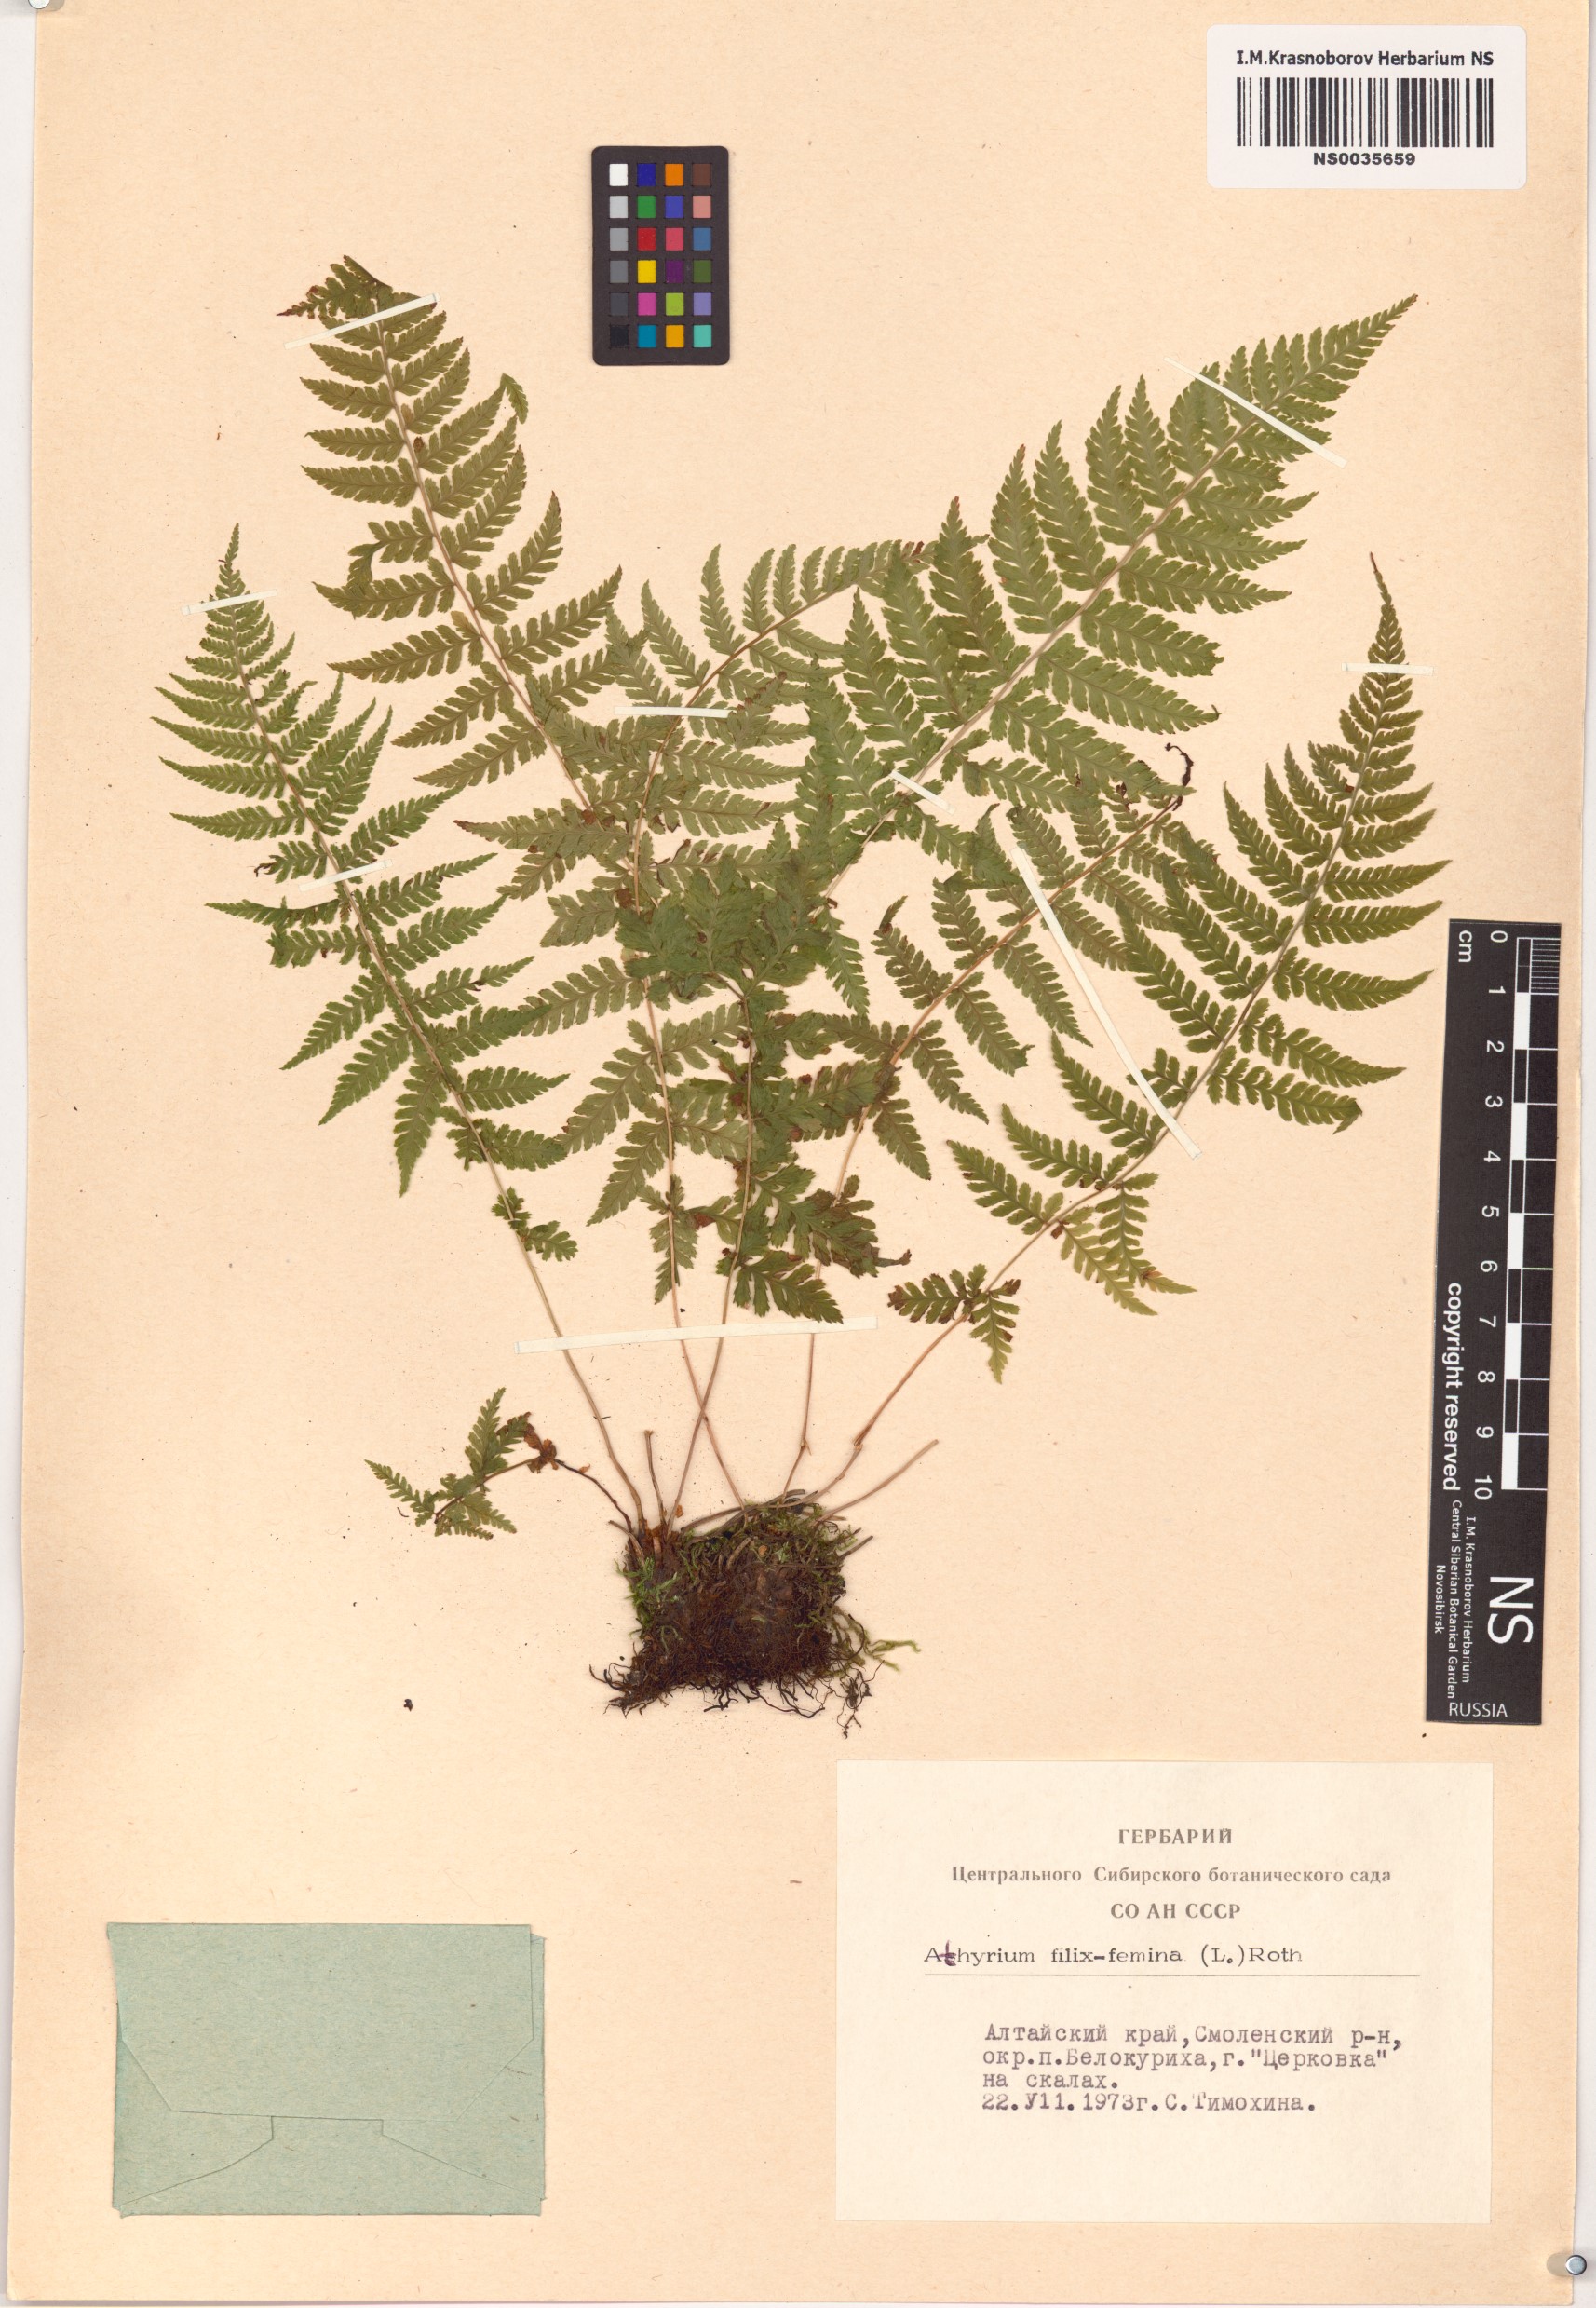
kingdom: Plantae
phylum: Tracheophyta
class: Polypodiopsida
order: Polypodiales
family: Athyriaceae
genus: Athyrium
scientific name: Athyrium filix-femina
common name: Lady fern
